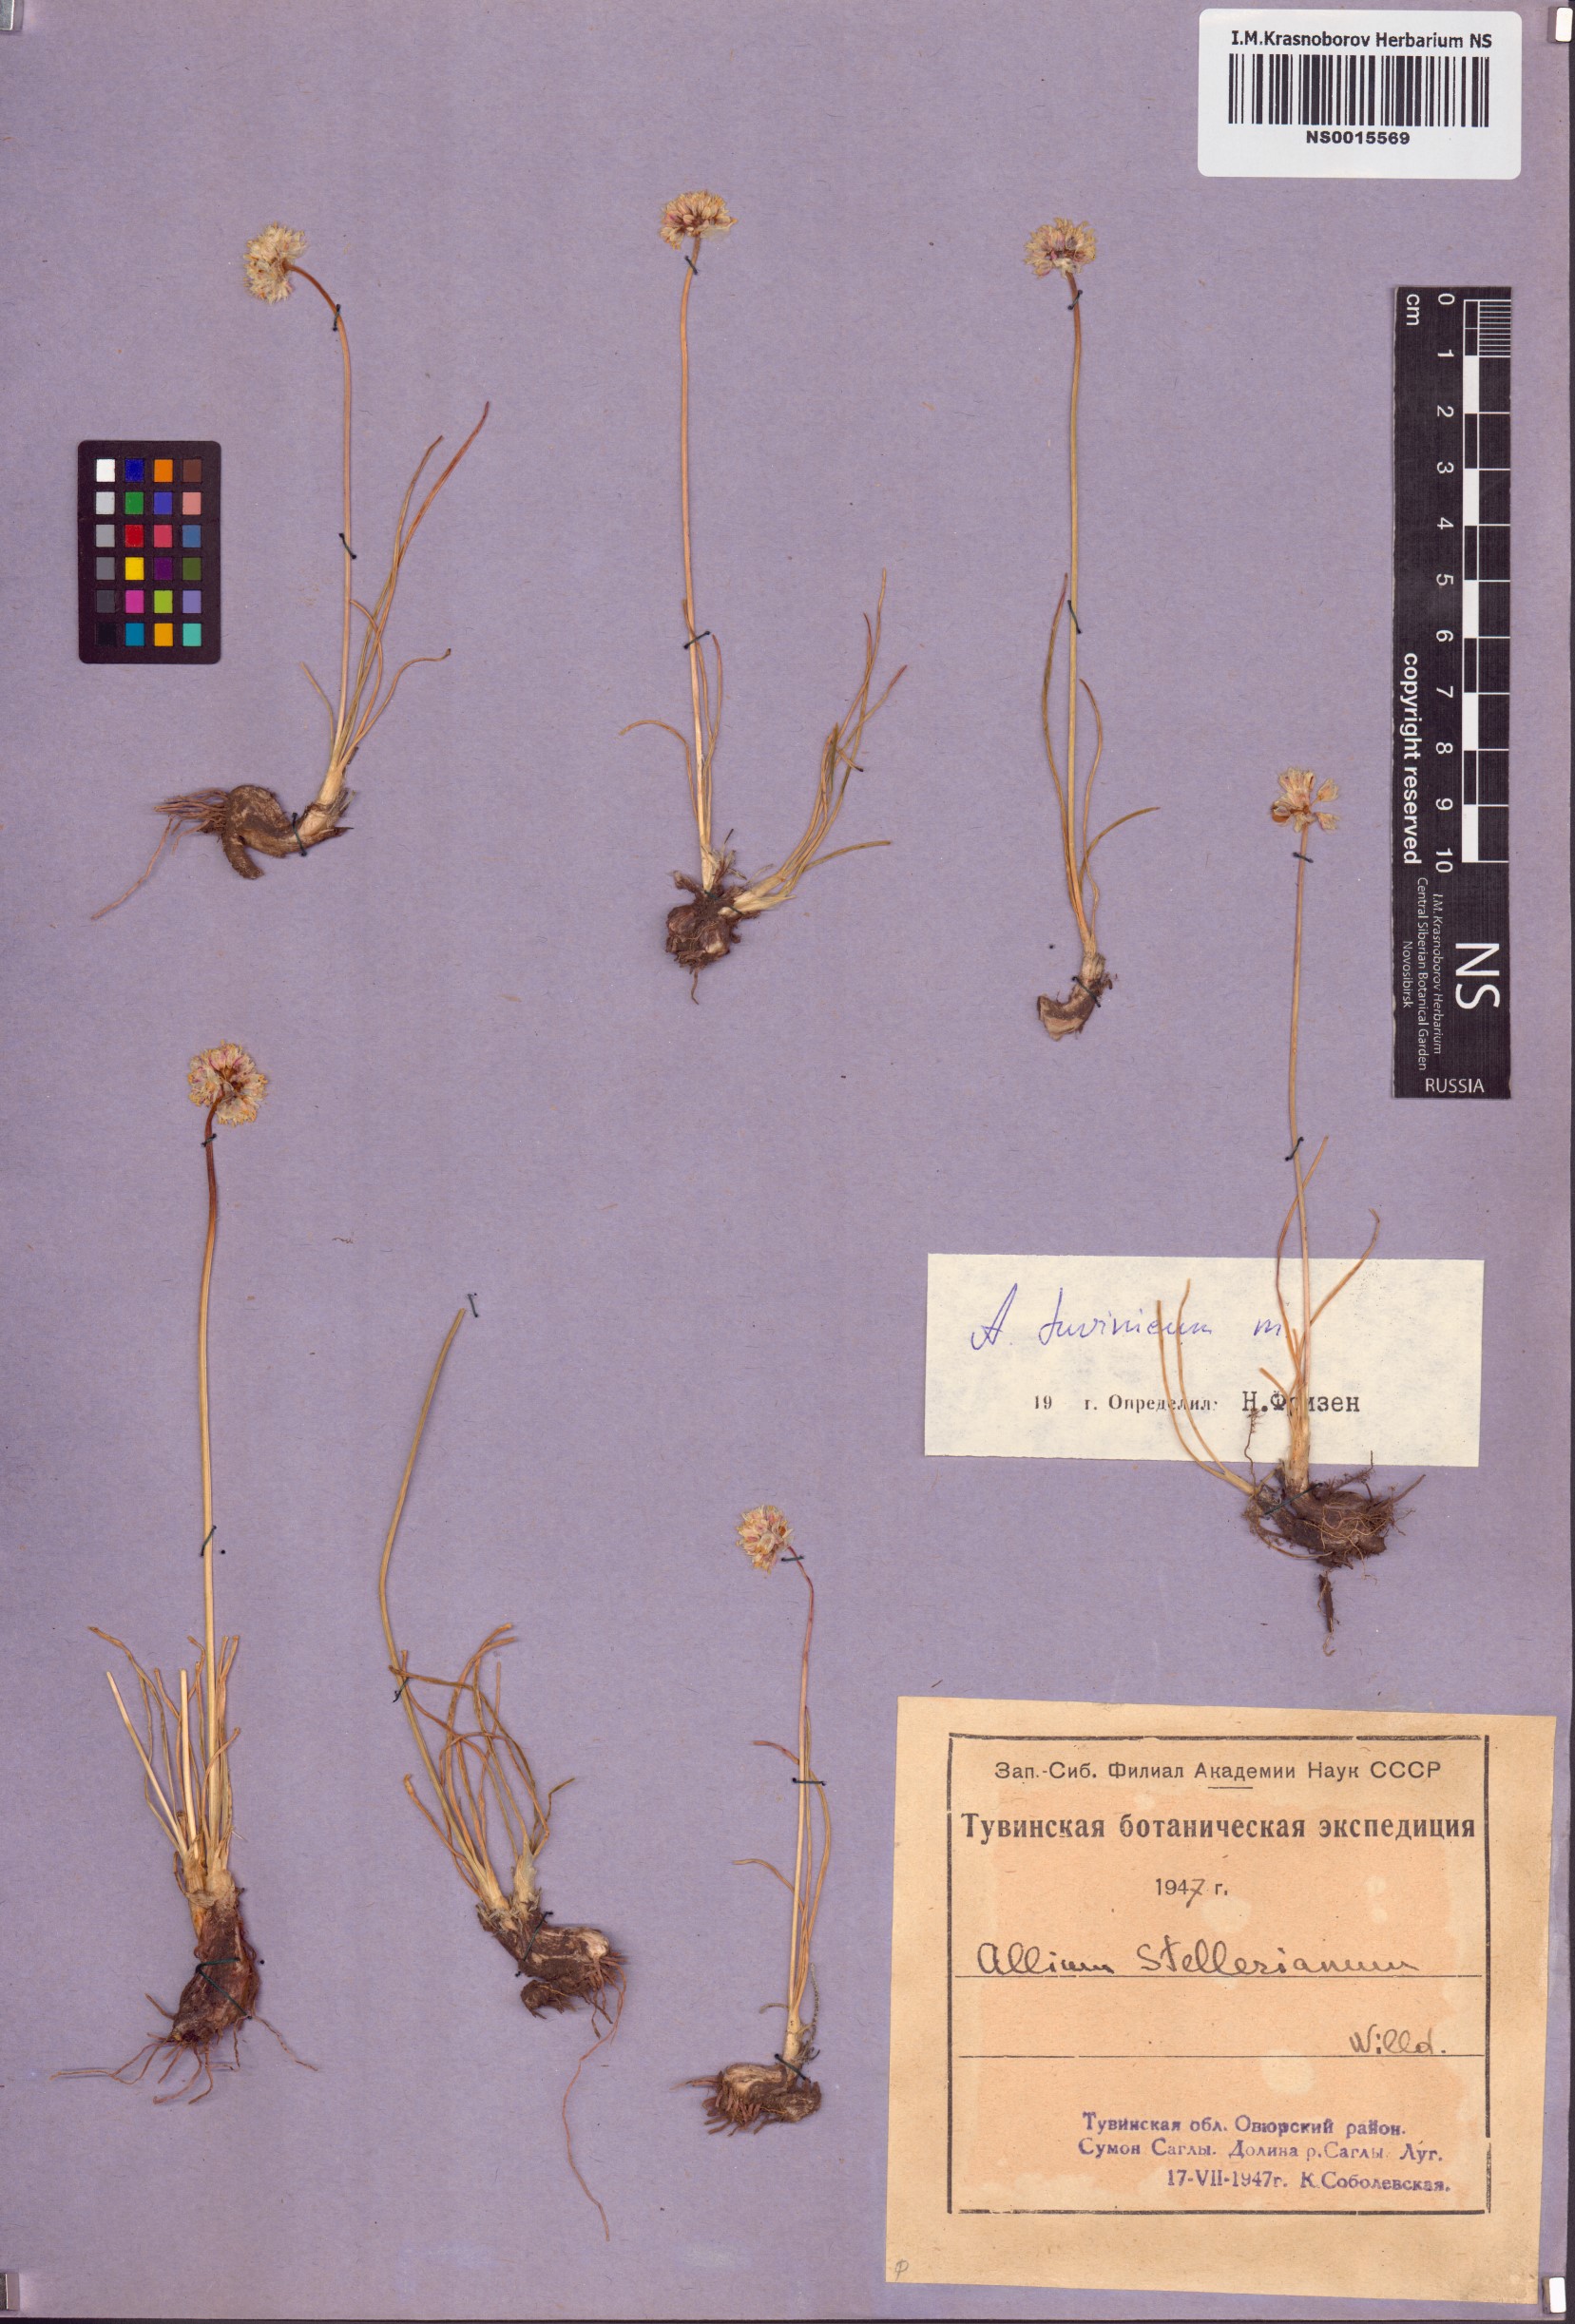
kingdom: Plantae
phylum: Tracheophyta
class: Liliopsida
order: Asparagales
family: Amaryllidaceae
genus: Allium
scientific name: Allium tuvinicum
